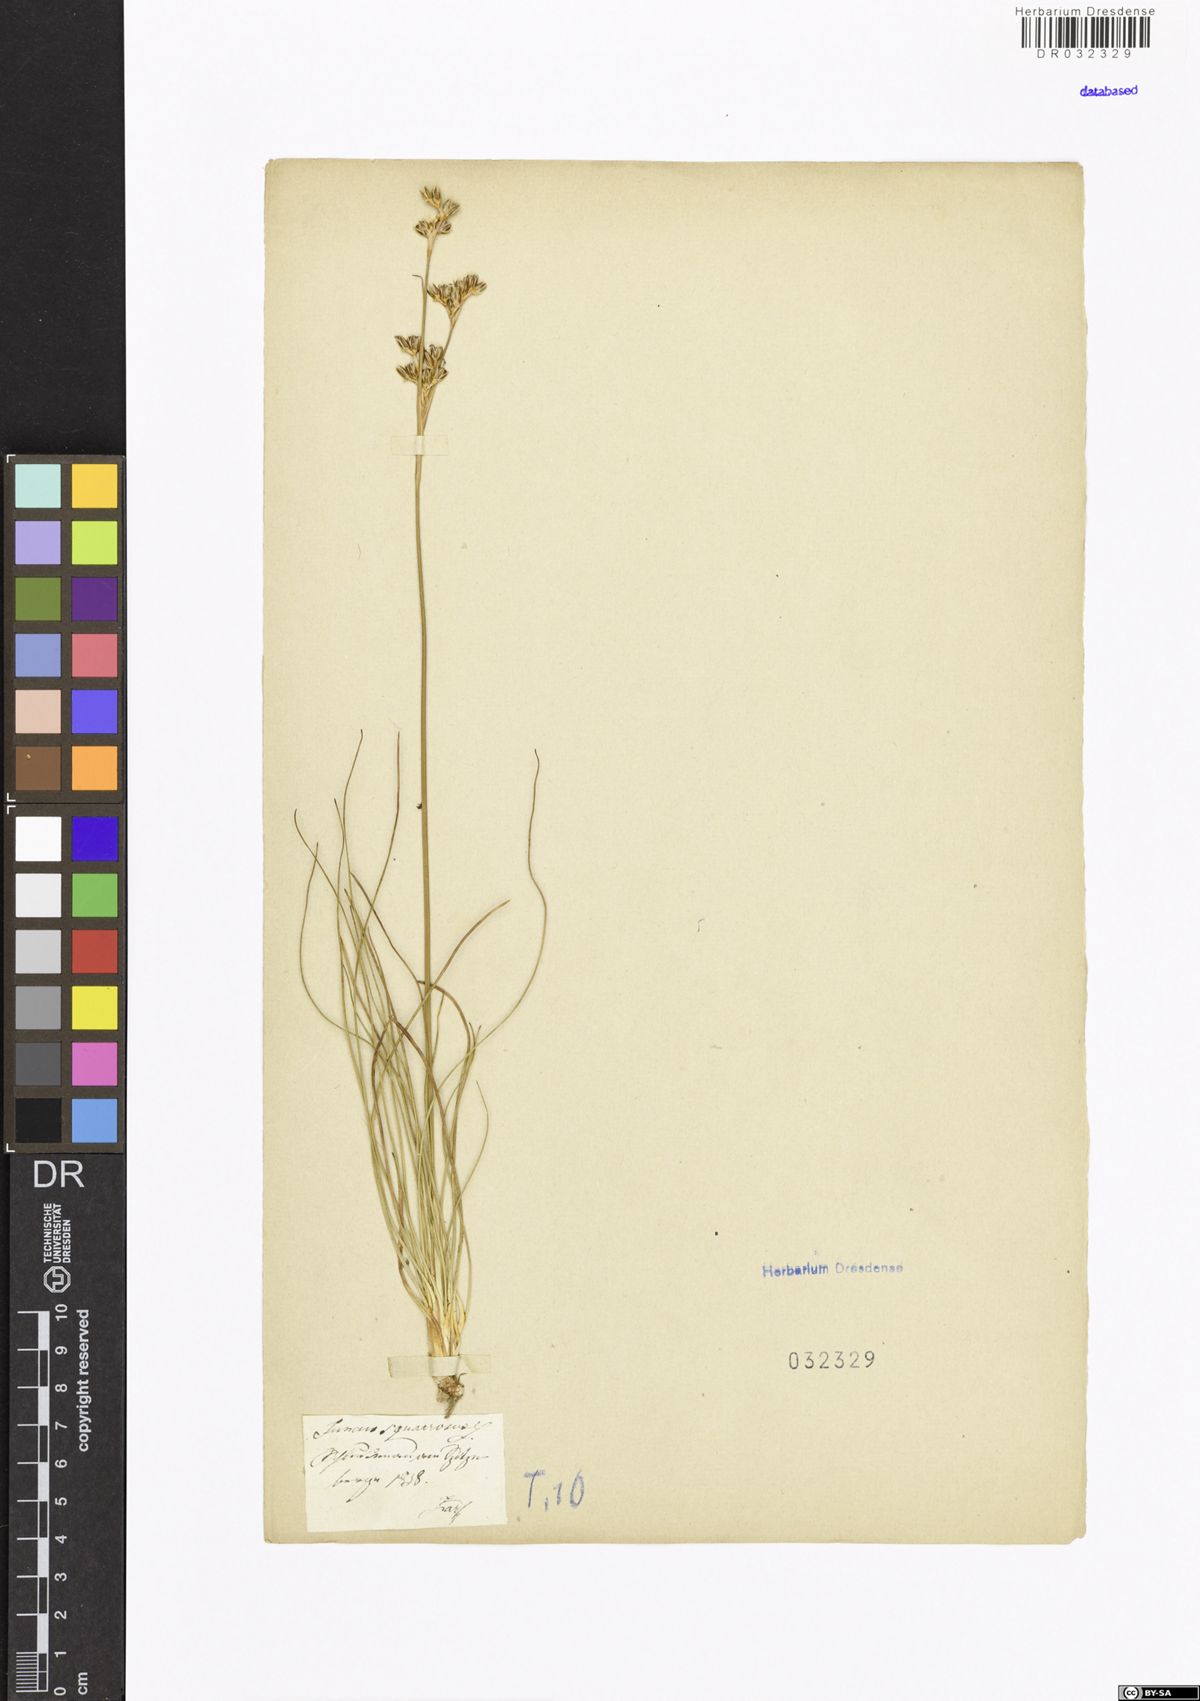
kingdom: Plantae
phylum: Tracheophyta
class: Liliopsida
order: Poales
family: Juncaceae
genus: Juncus
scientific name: Juncus squarrosus
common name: Heath rush
